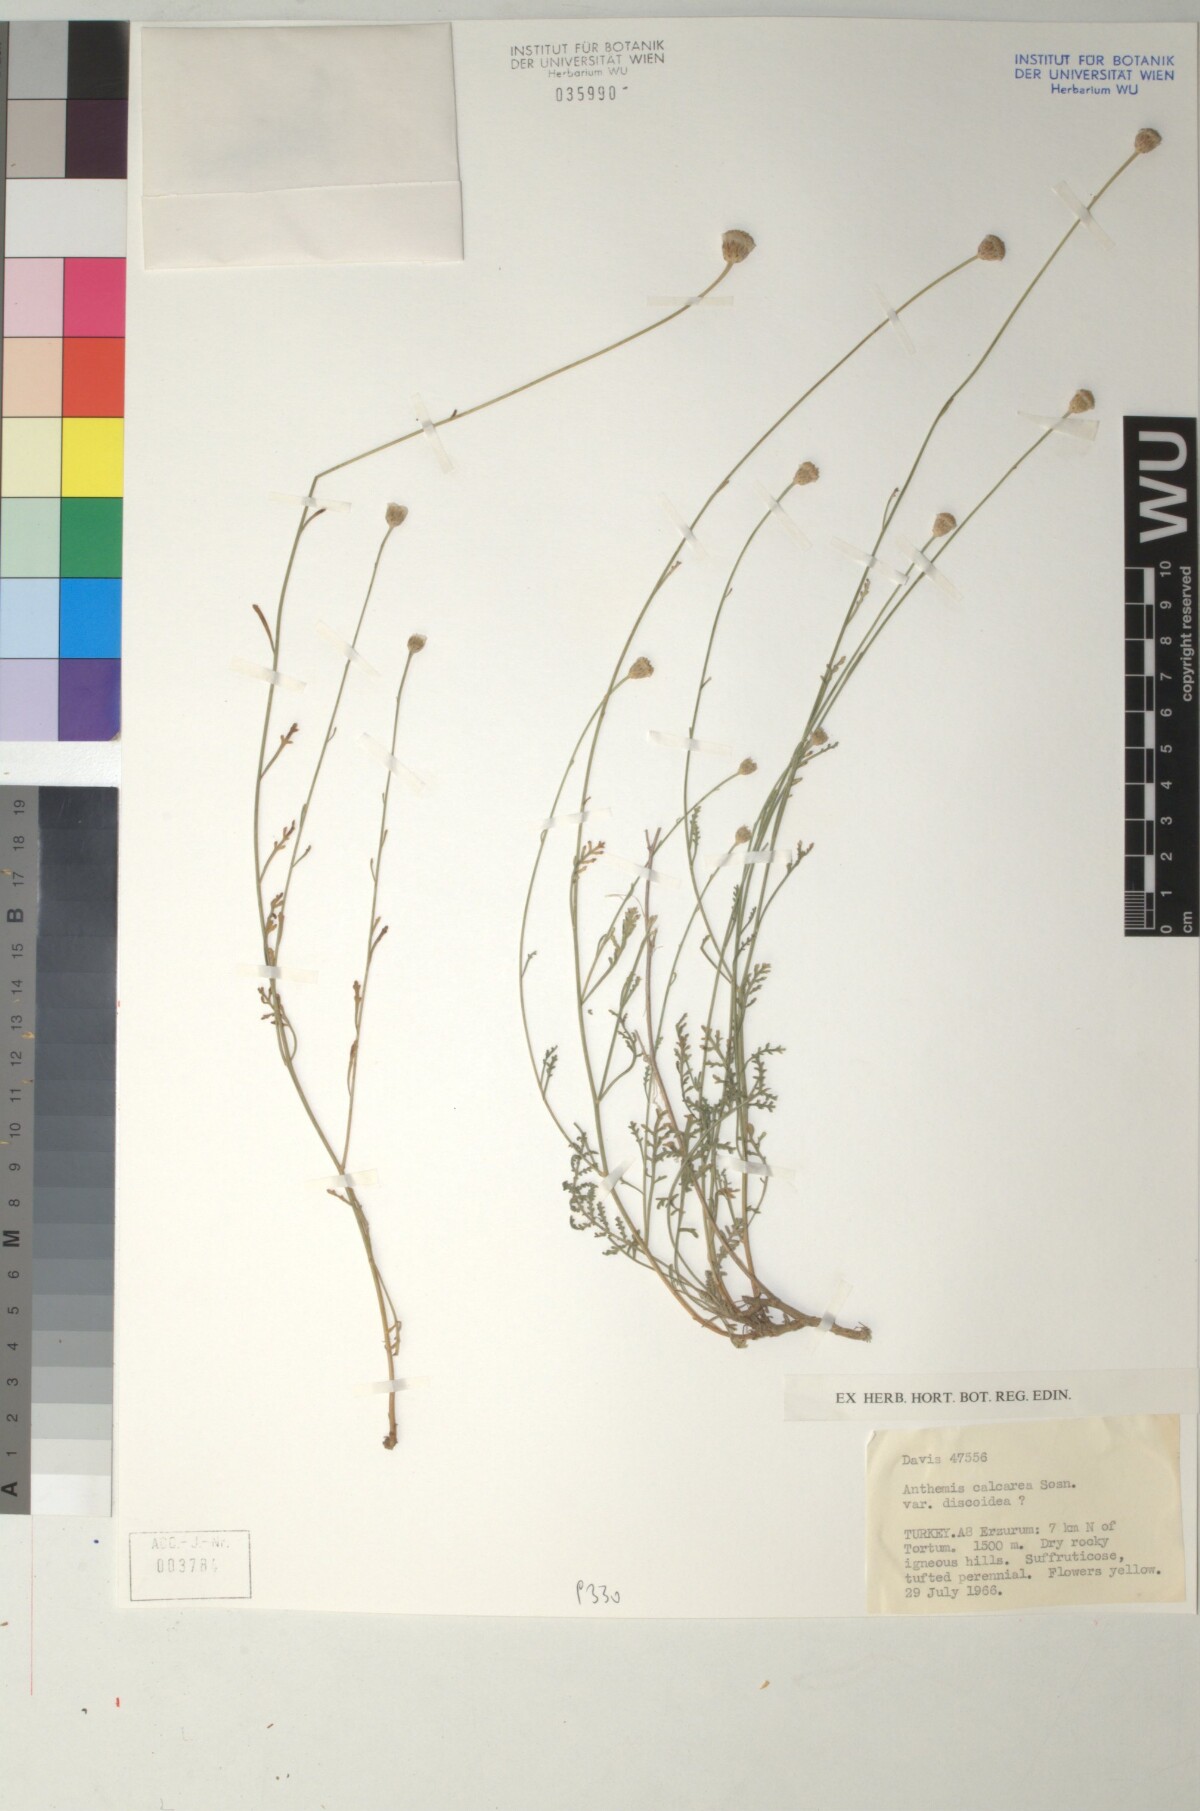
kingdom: Plantae
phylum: Tracheophyta
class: Magnoliopsida
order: Asterales
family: Asteraceae
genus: Archanthemis
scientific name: Archanthemis calcarea
